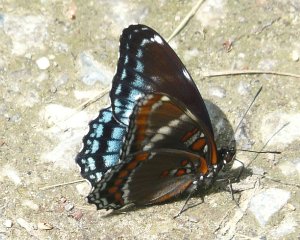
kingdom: Animalia
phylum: Arthropoda
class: Insecta
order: Lepidoptera
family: Nymphalidae
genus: Limenitis
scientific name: Limenitis astyanax
